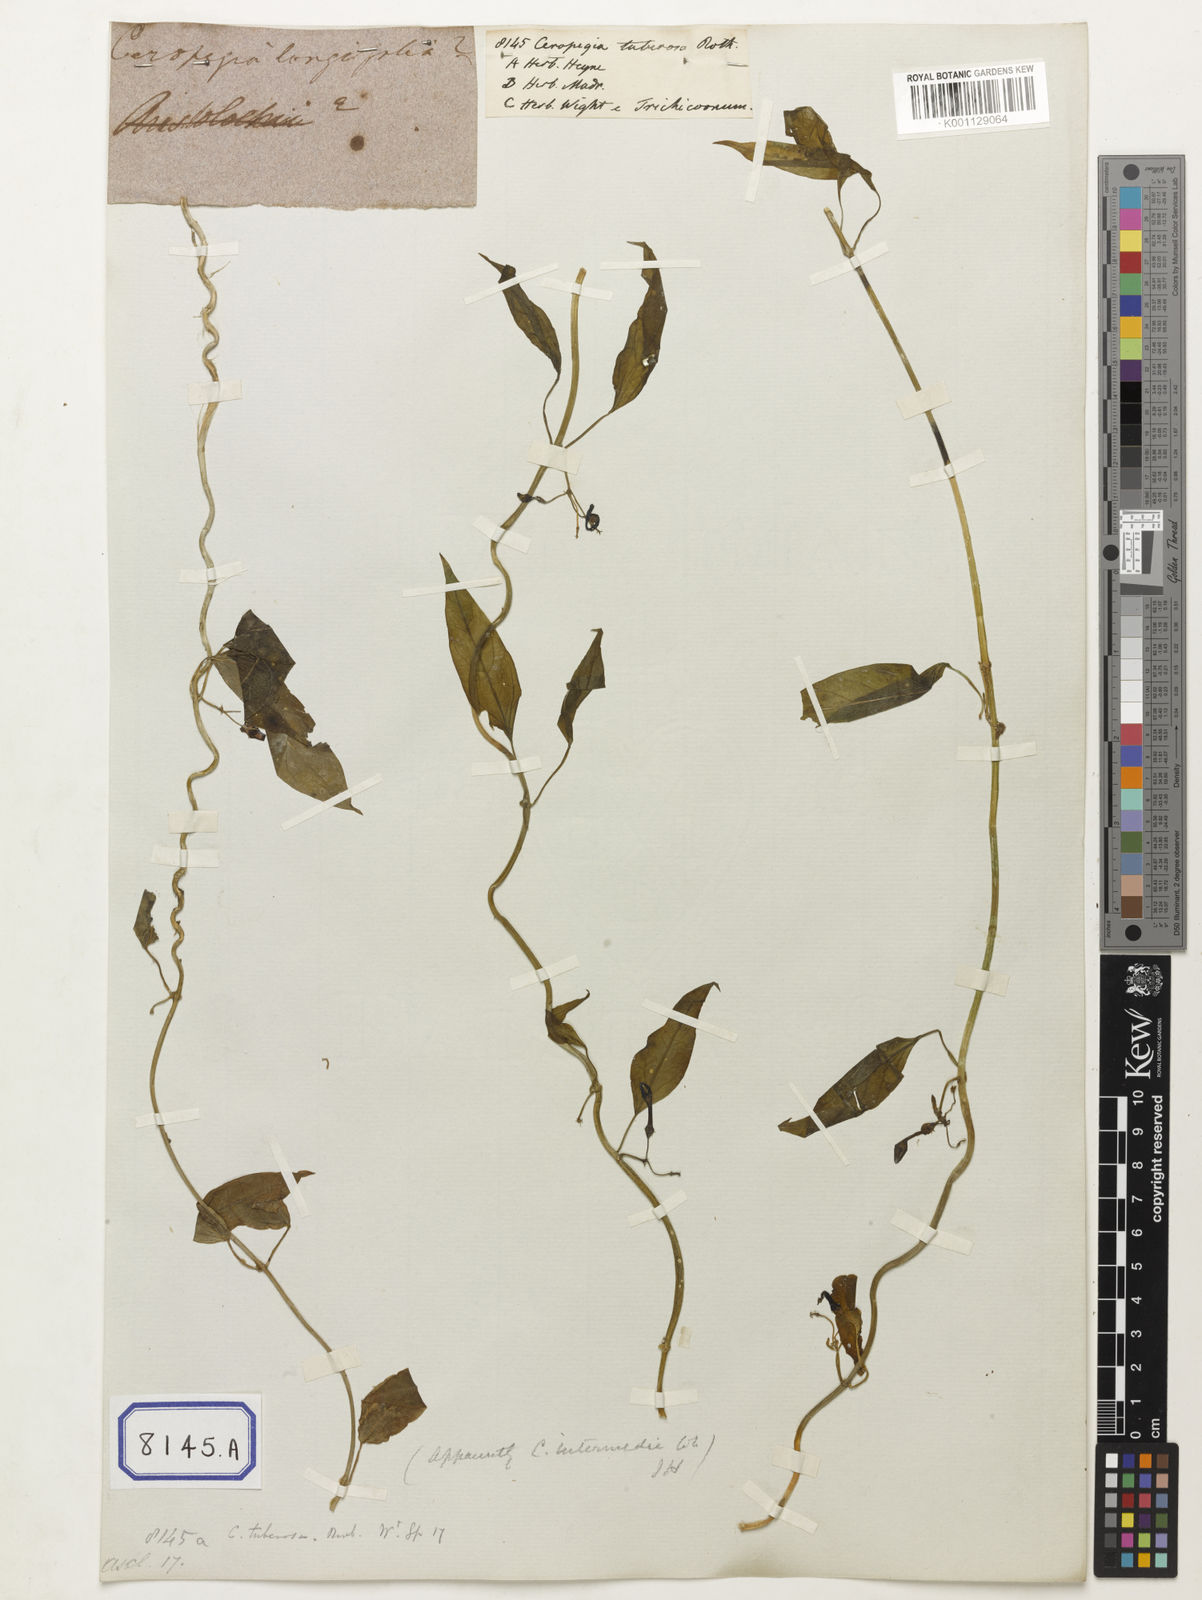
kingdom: Plantae
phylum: Tracheophyta
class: Magnoliopsida
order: Gentianales
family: Apocynaceae
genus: Ceropegia
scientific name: Ceropegia
